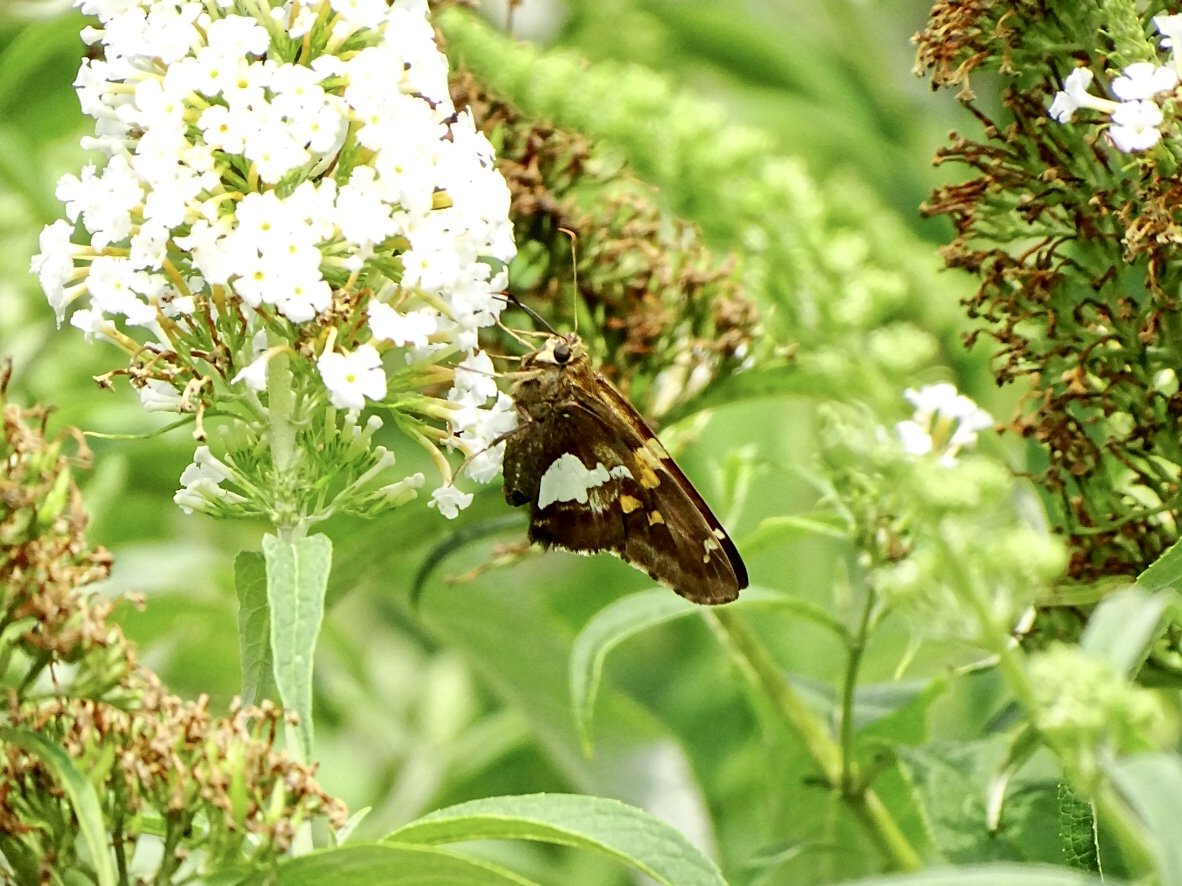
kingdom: Animalia
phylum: Arthropoda
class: Insecta
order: Lepidoptera
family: Hesperiidae
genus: Epargyreus
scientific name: Epargyreus clarus
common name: Silver-spotted Skipper
